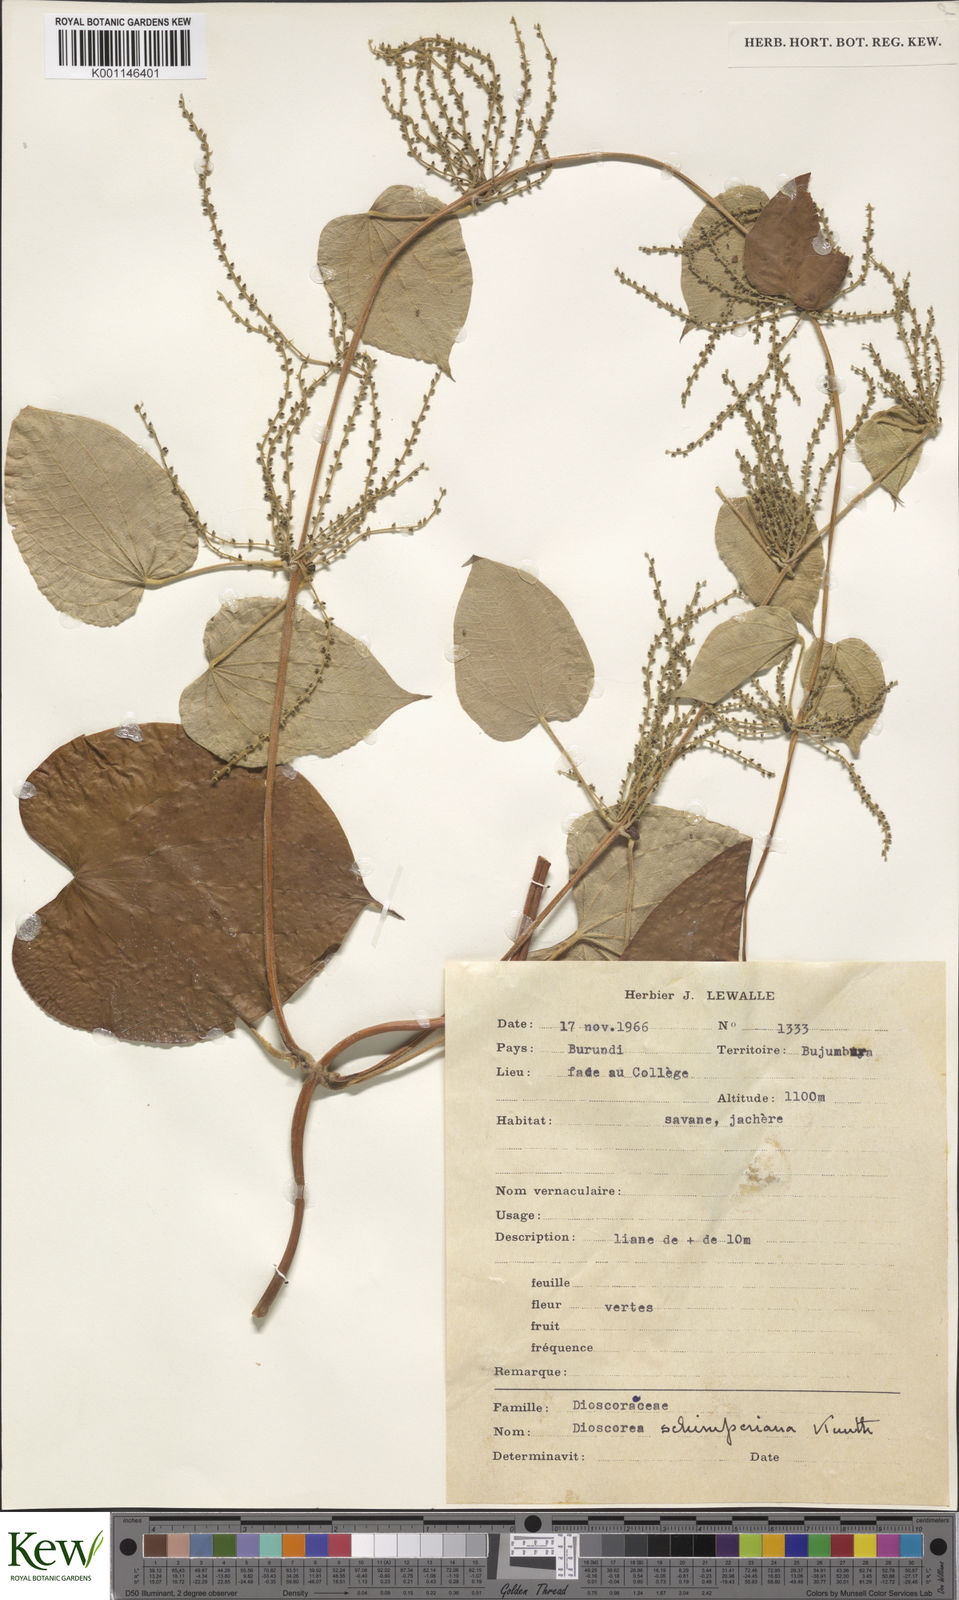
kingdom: Plantae
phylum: Tracheophyta
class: Liliopsida
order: Dioscoreales
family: Dioscoreaceae
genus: Dioscorea
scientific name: Dioscorea schimperiana
